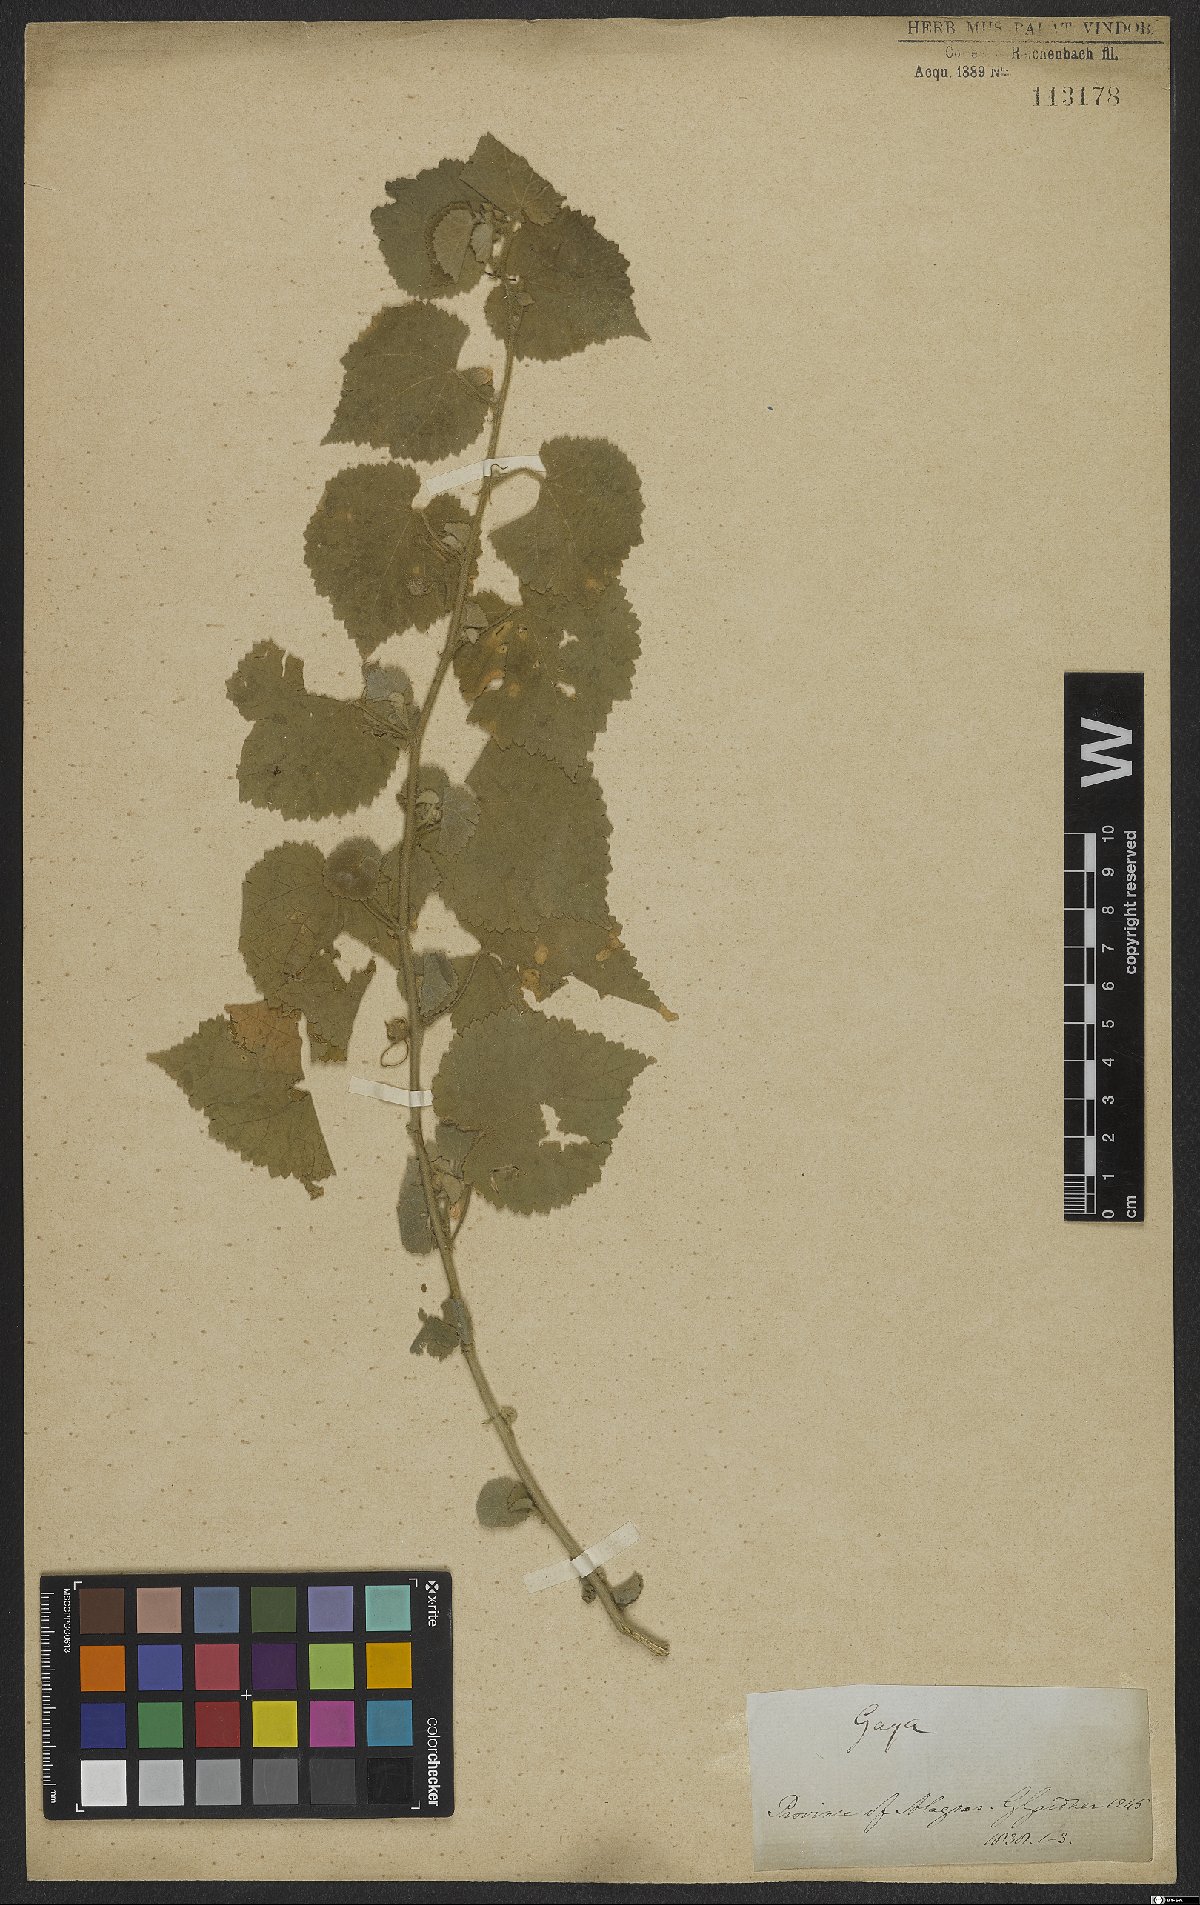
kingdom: Plantae
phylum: Tracheophyta
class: Magnoliopsida
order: Malvales
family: Malvaceae
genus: Gaya
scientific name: Gaya
